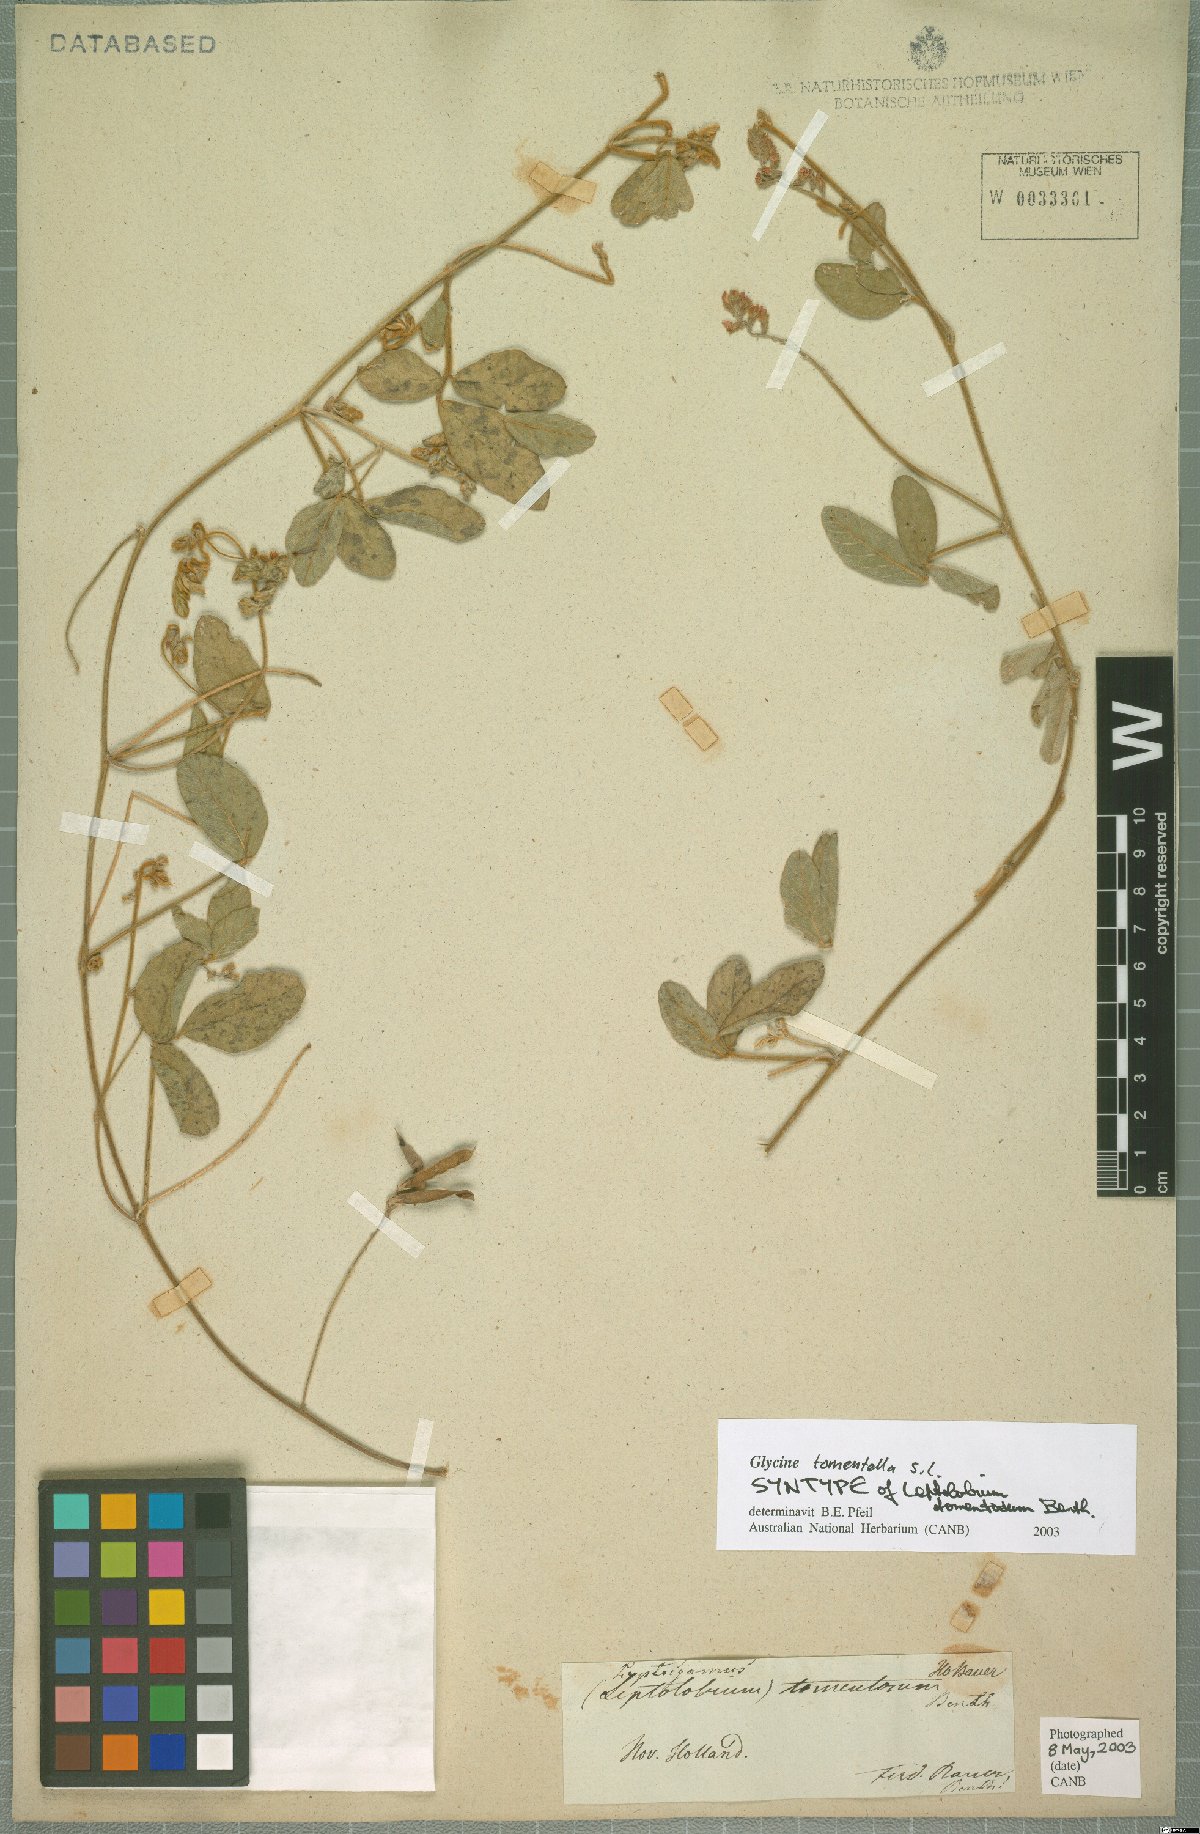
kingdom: Plantae
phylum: Tracheophyta
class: Magnoliopsida
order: Fabales
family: Fabaceae
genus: Glycine
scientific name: Glycine tomentella
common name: Hairy glycine
